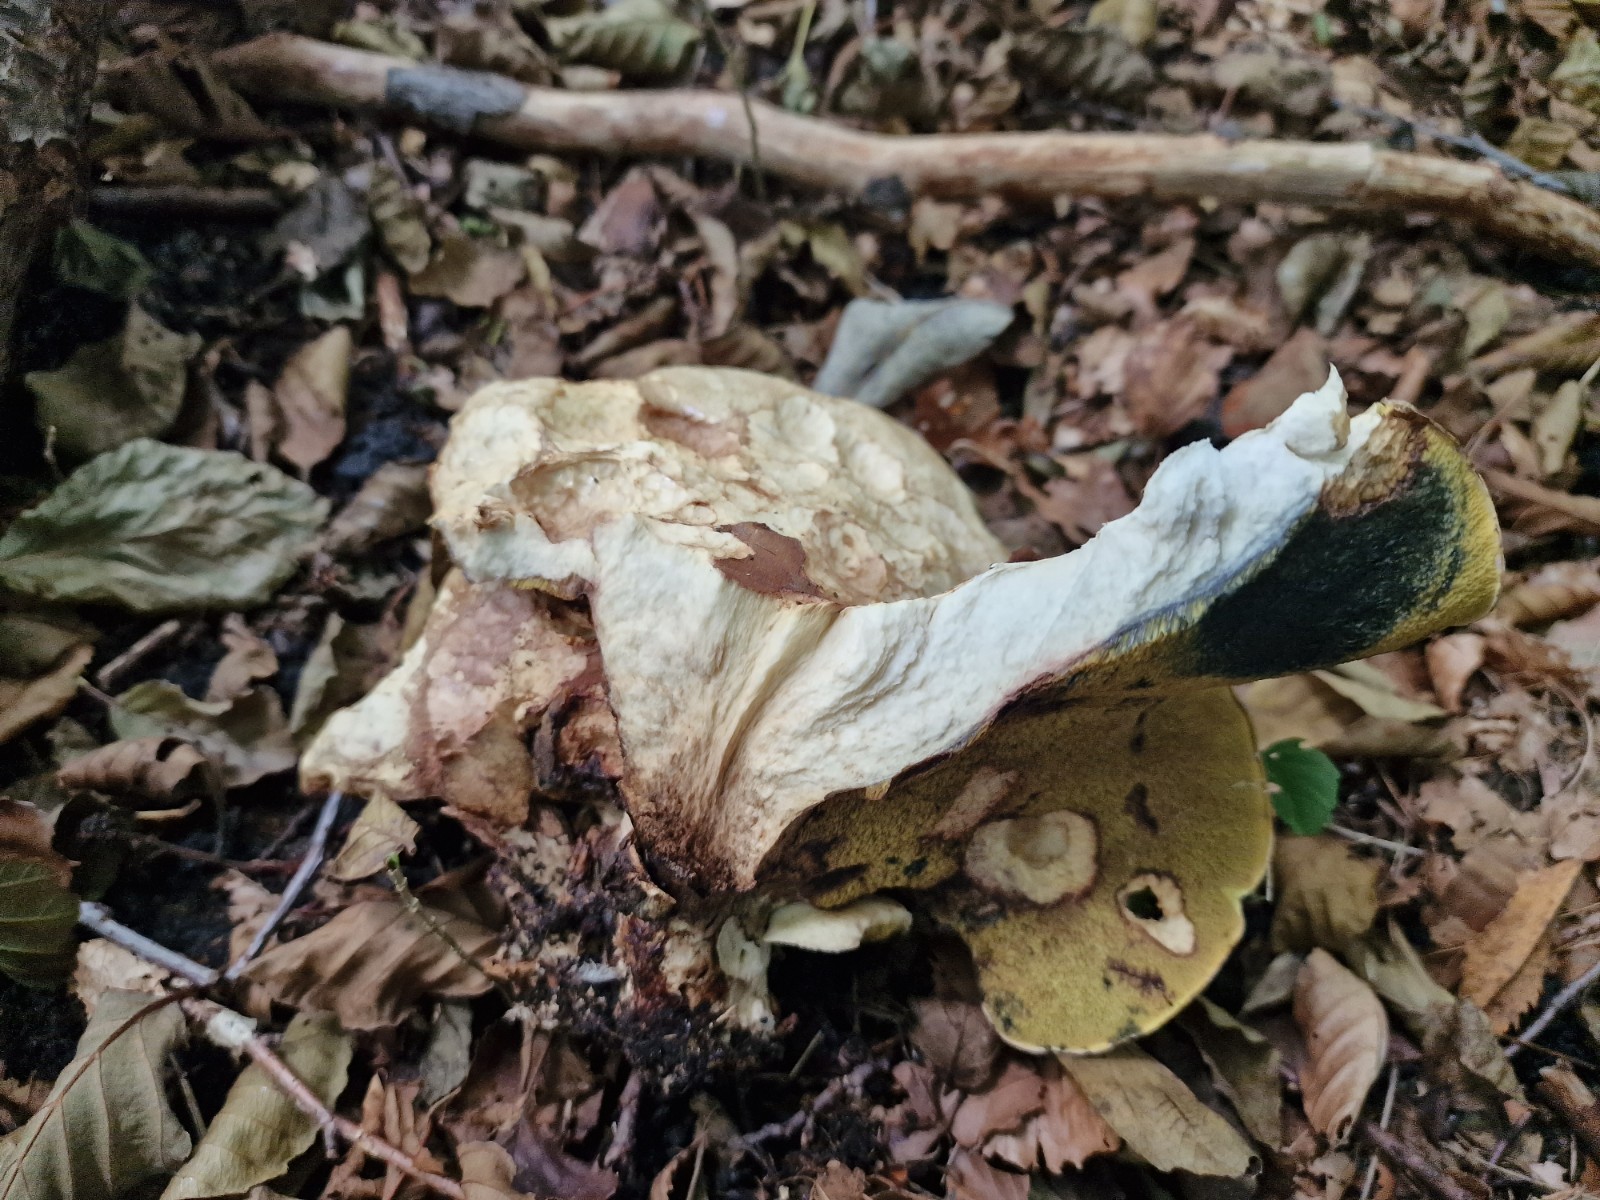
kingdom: Fungi
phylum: Basidiomycota
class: Agaricomycetes
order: Boletales
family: Paxillaceae
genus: Gyrodon
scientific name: Gyrodon lividus
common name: ellerørhat
